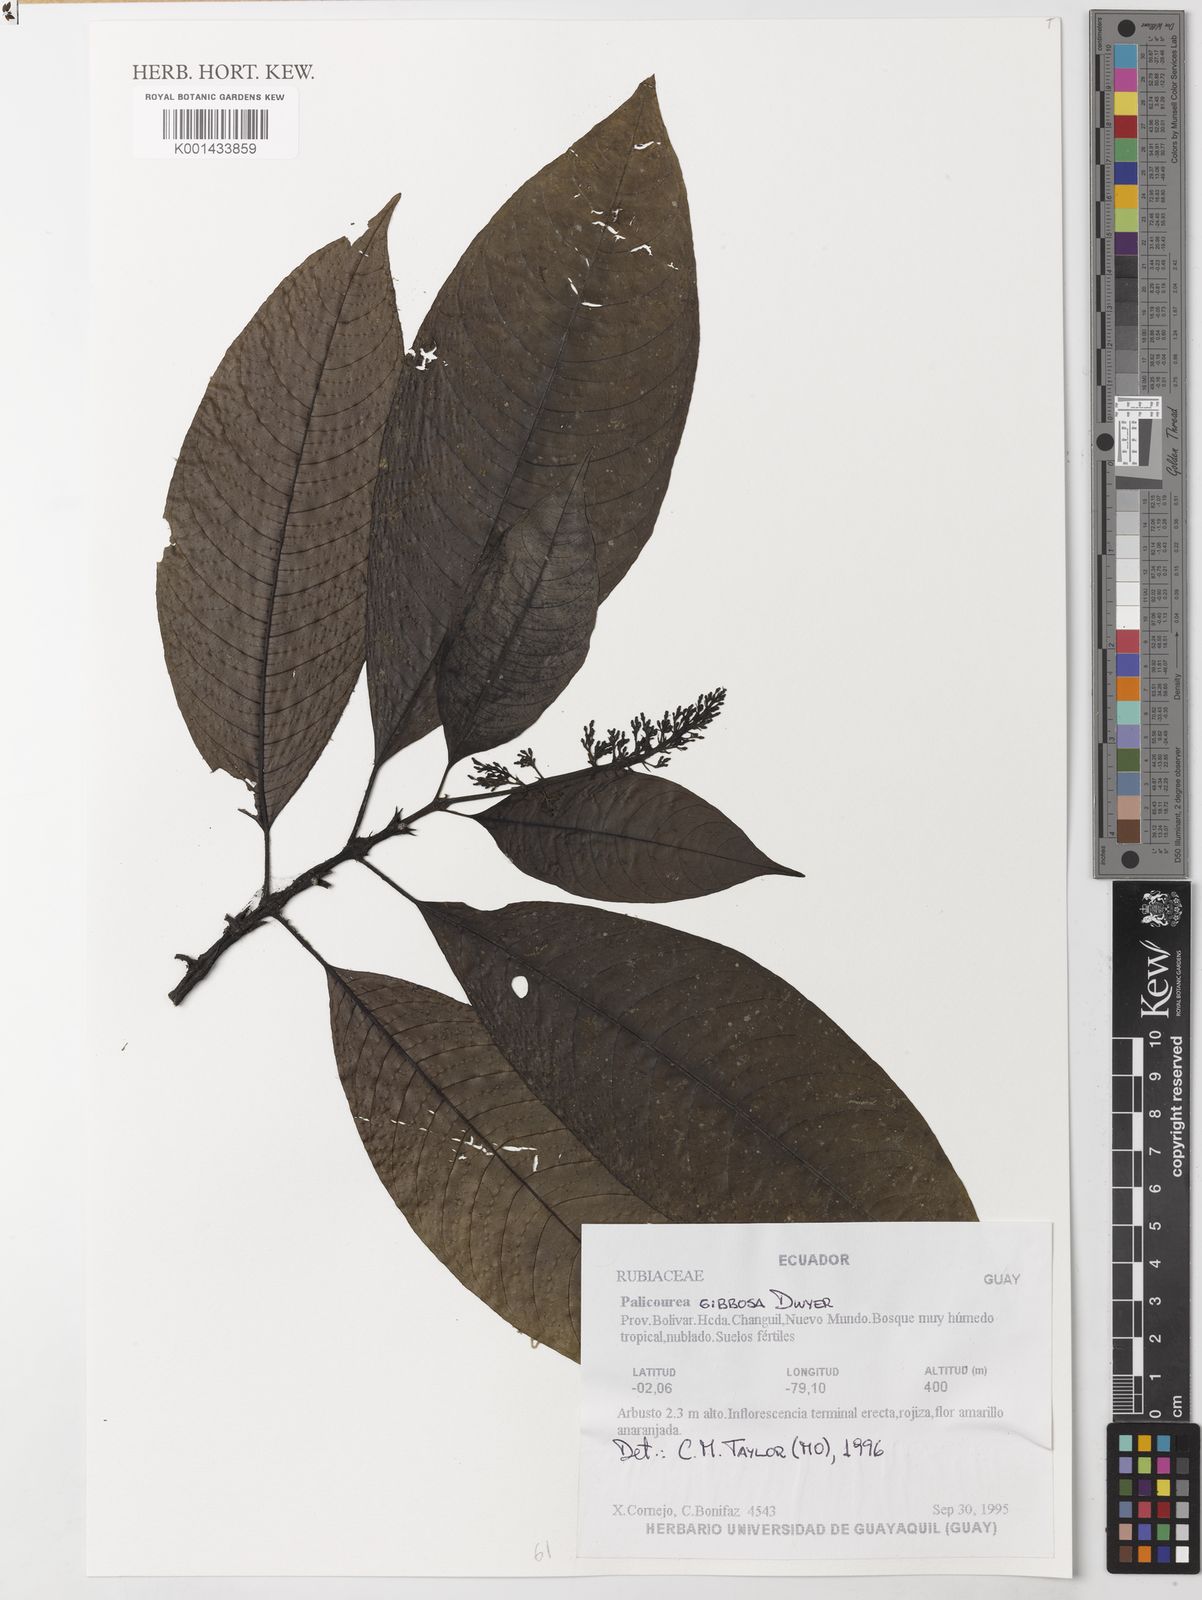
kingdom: Plantae
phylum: Tracheophyta
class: Magnoliopsida
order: Gentianales
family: Rubiaceae
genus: Palicourea
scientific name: Palicourea pyramidalis
